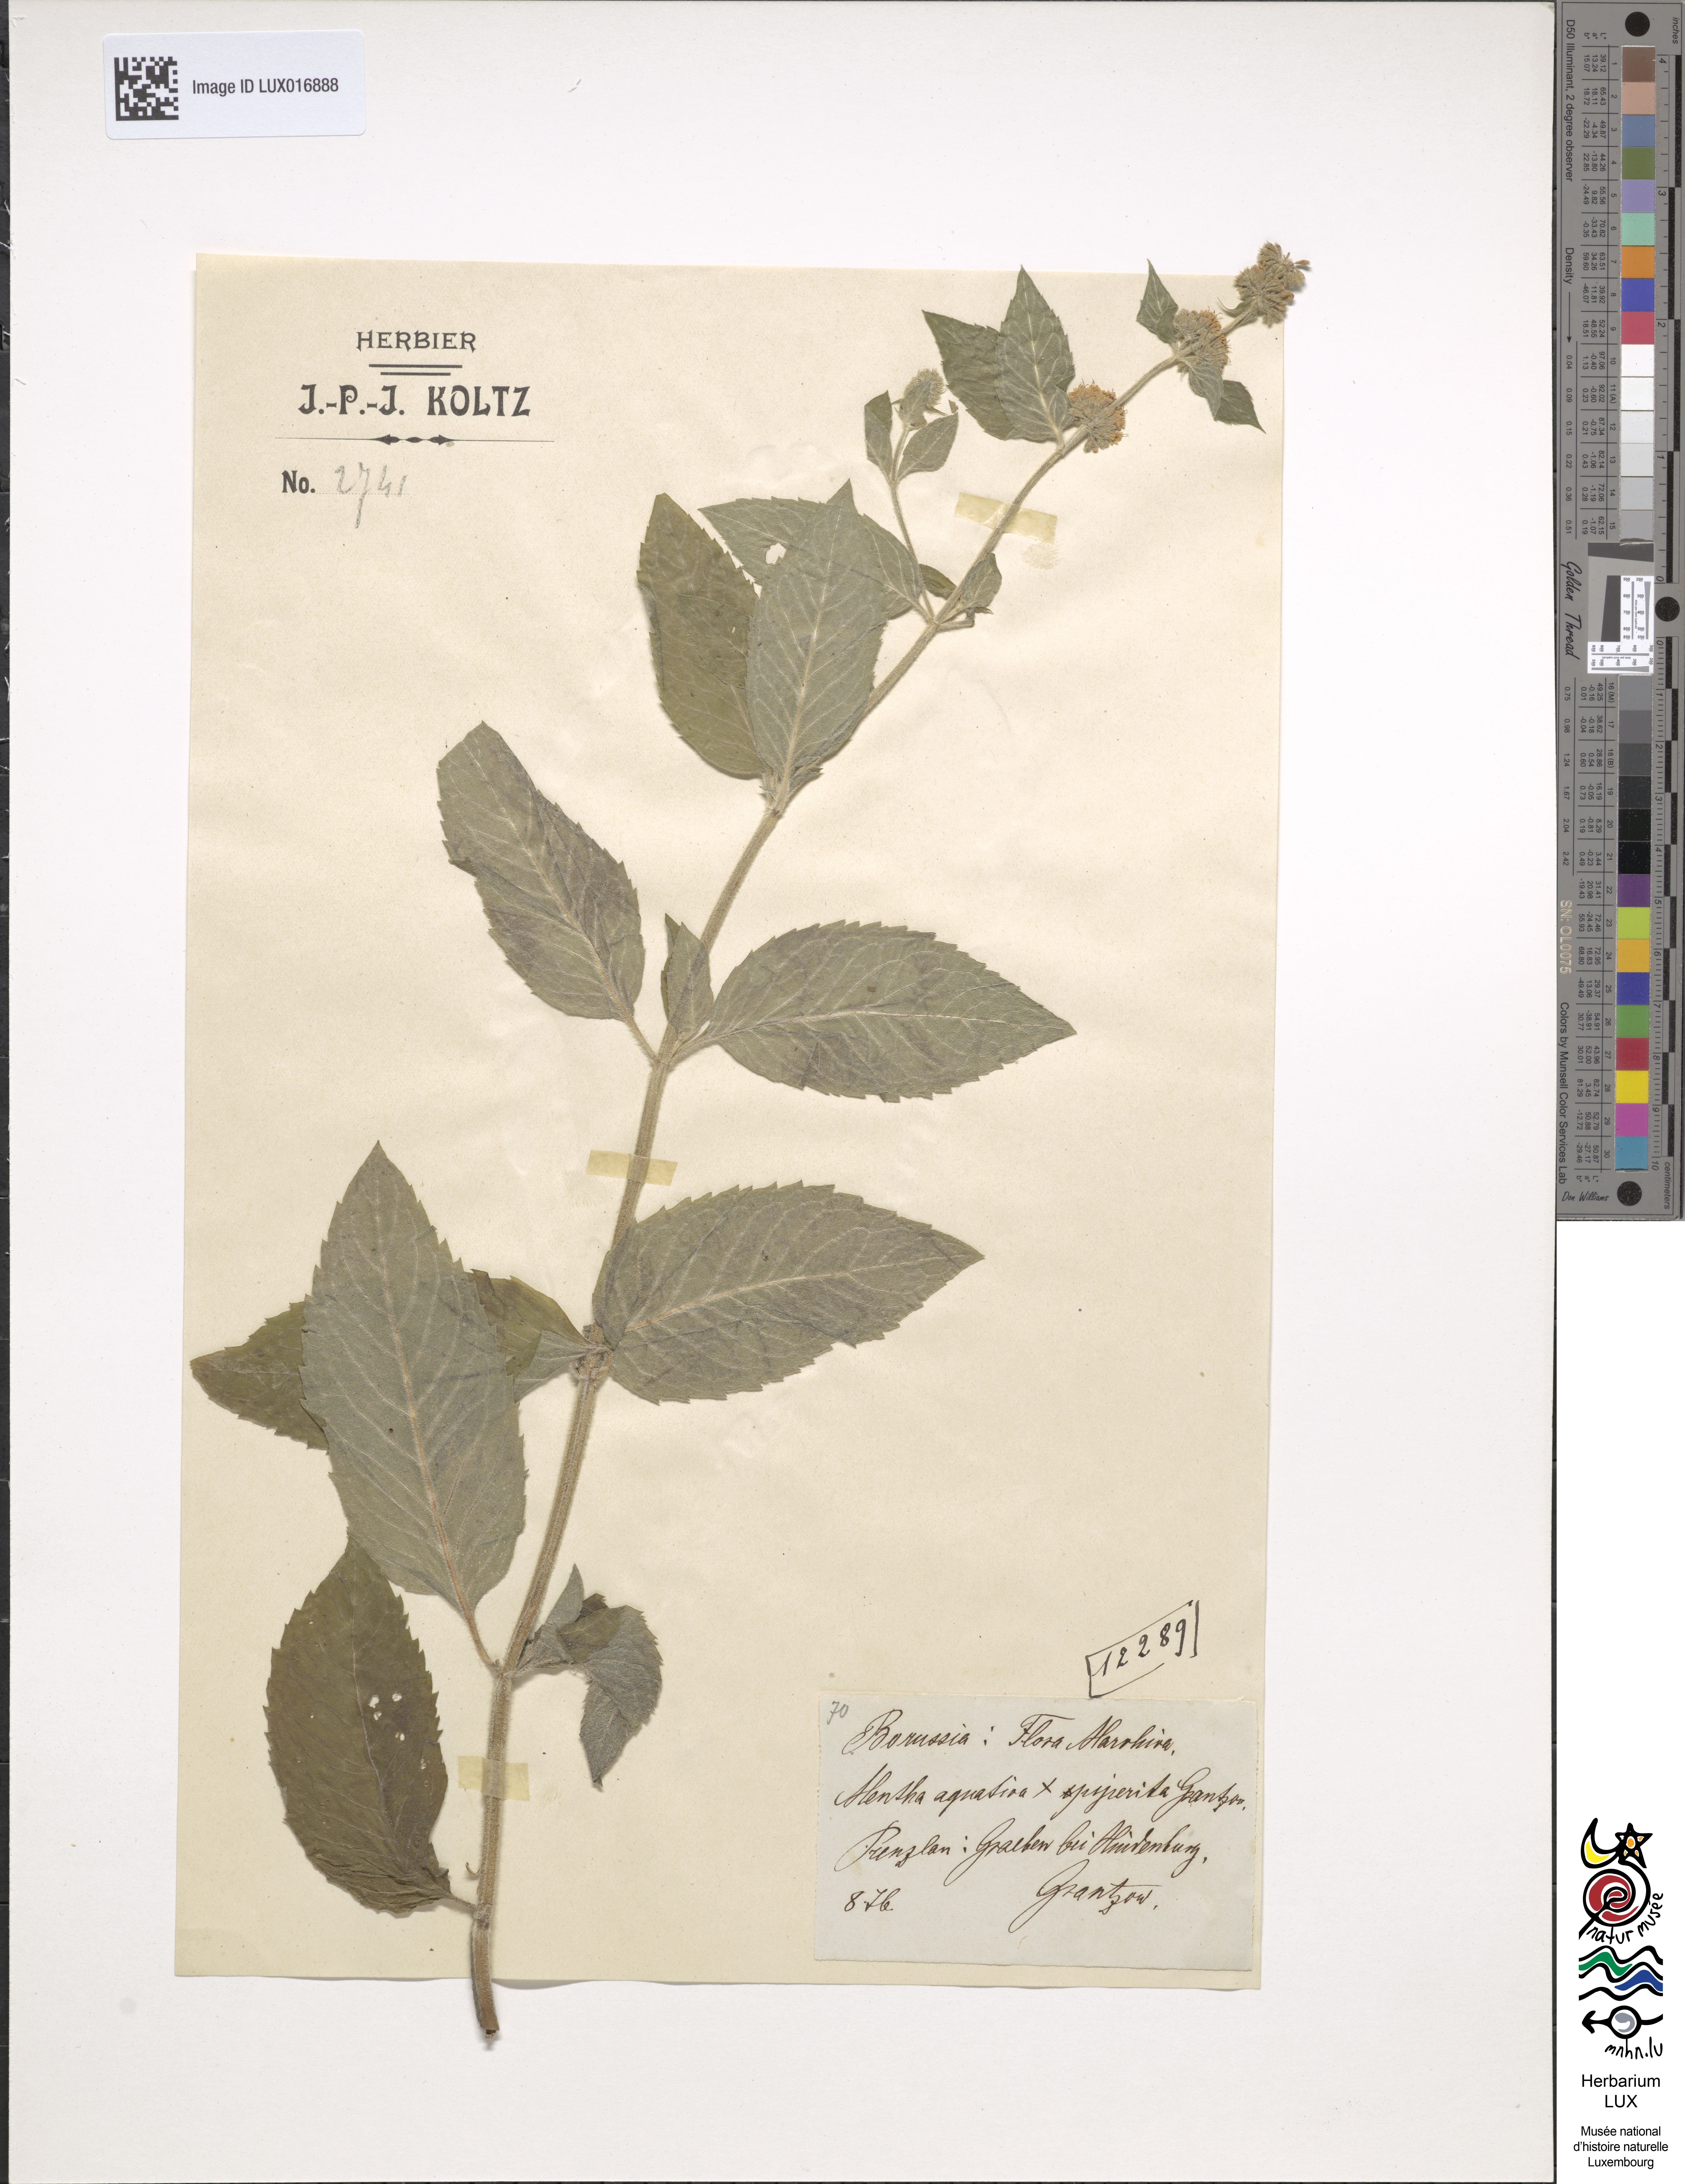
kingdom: Plantae
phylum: Tracheophyta
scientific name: Tracheophyta
